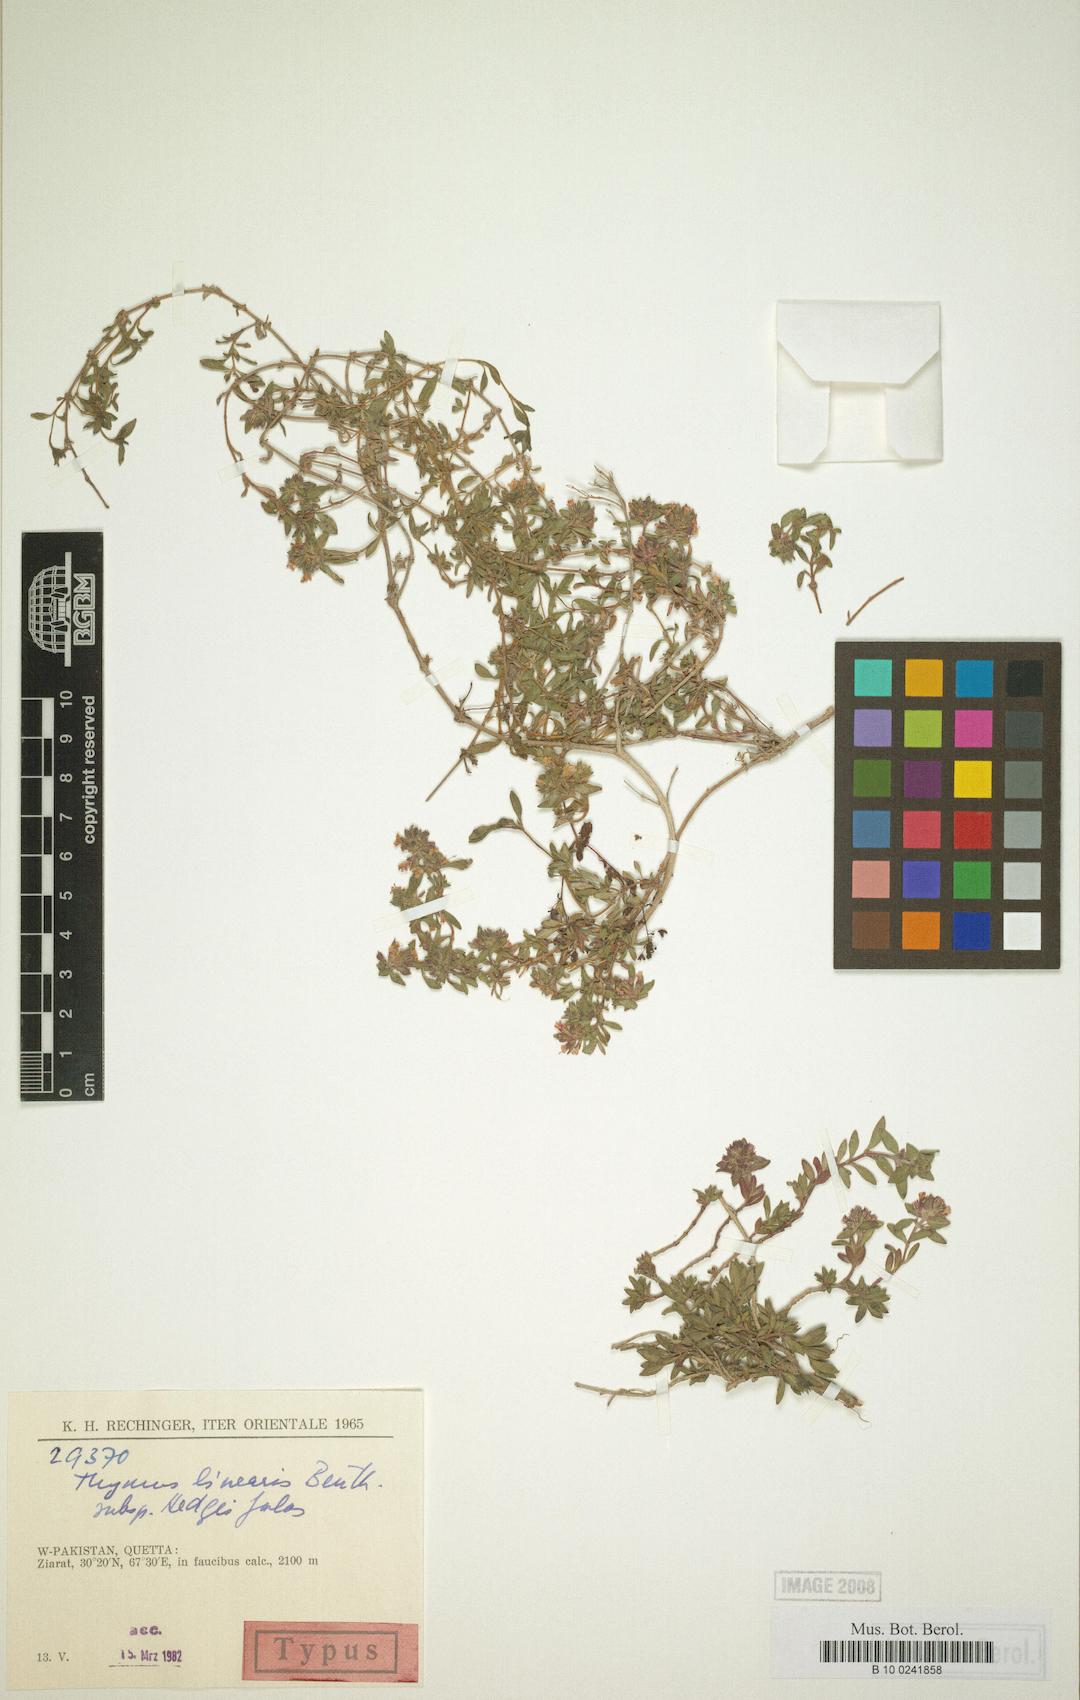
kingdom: Plantae
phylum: Tracheophyta
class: Magnoliopsida
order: Lamiales
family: Lamiaceae
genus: Thymus
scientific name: Thymus linearis
